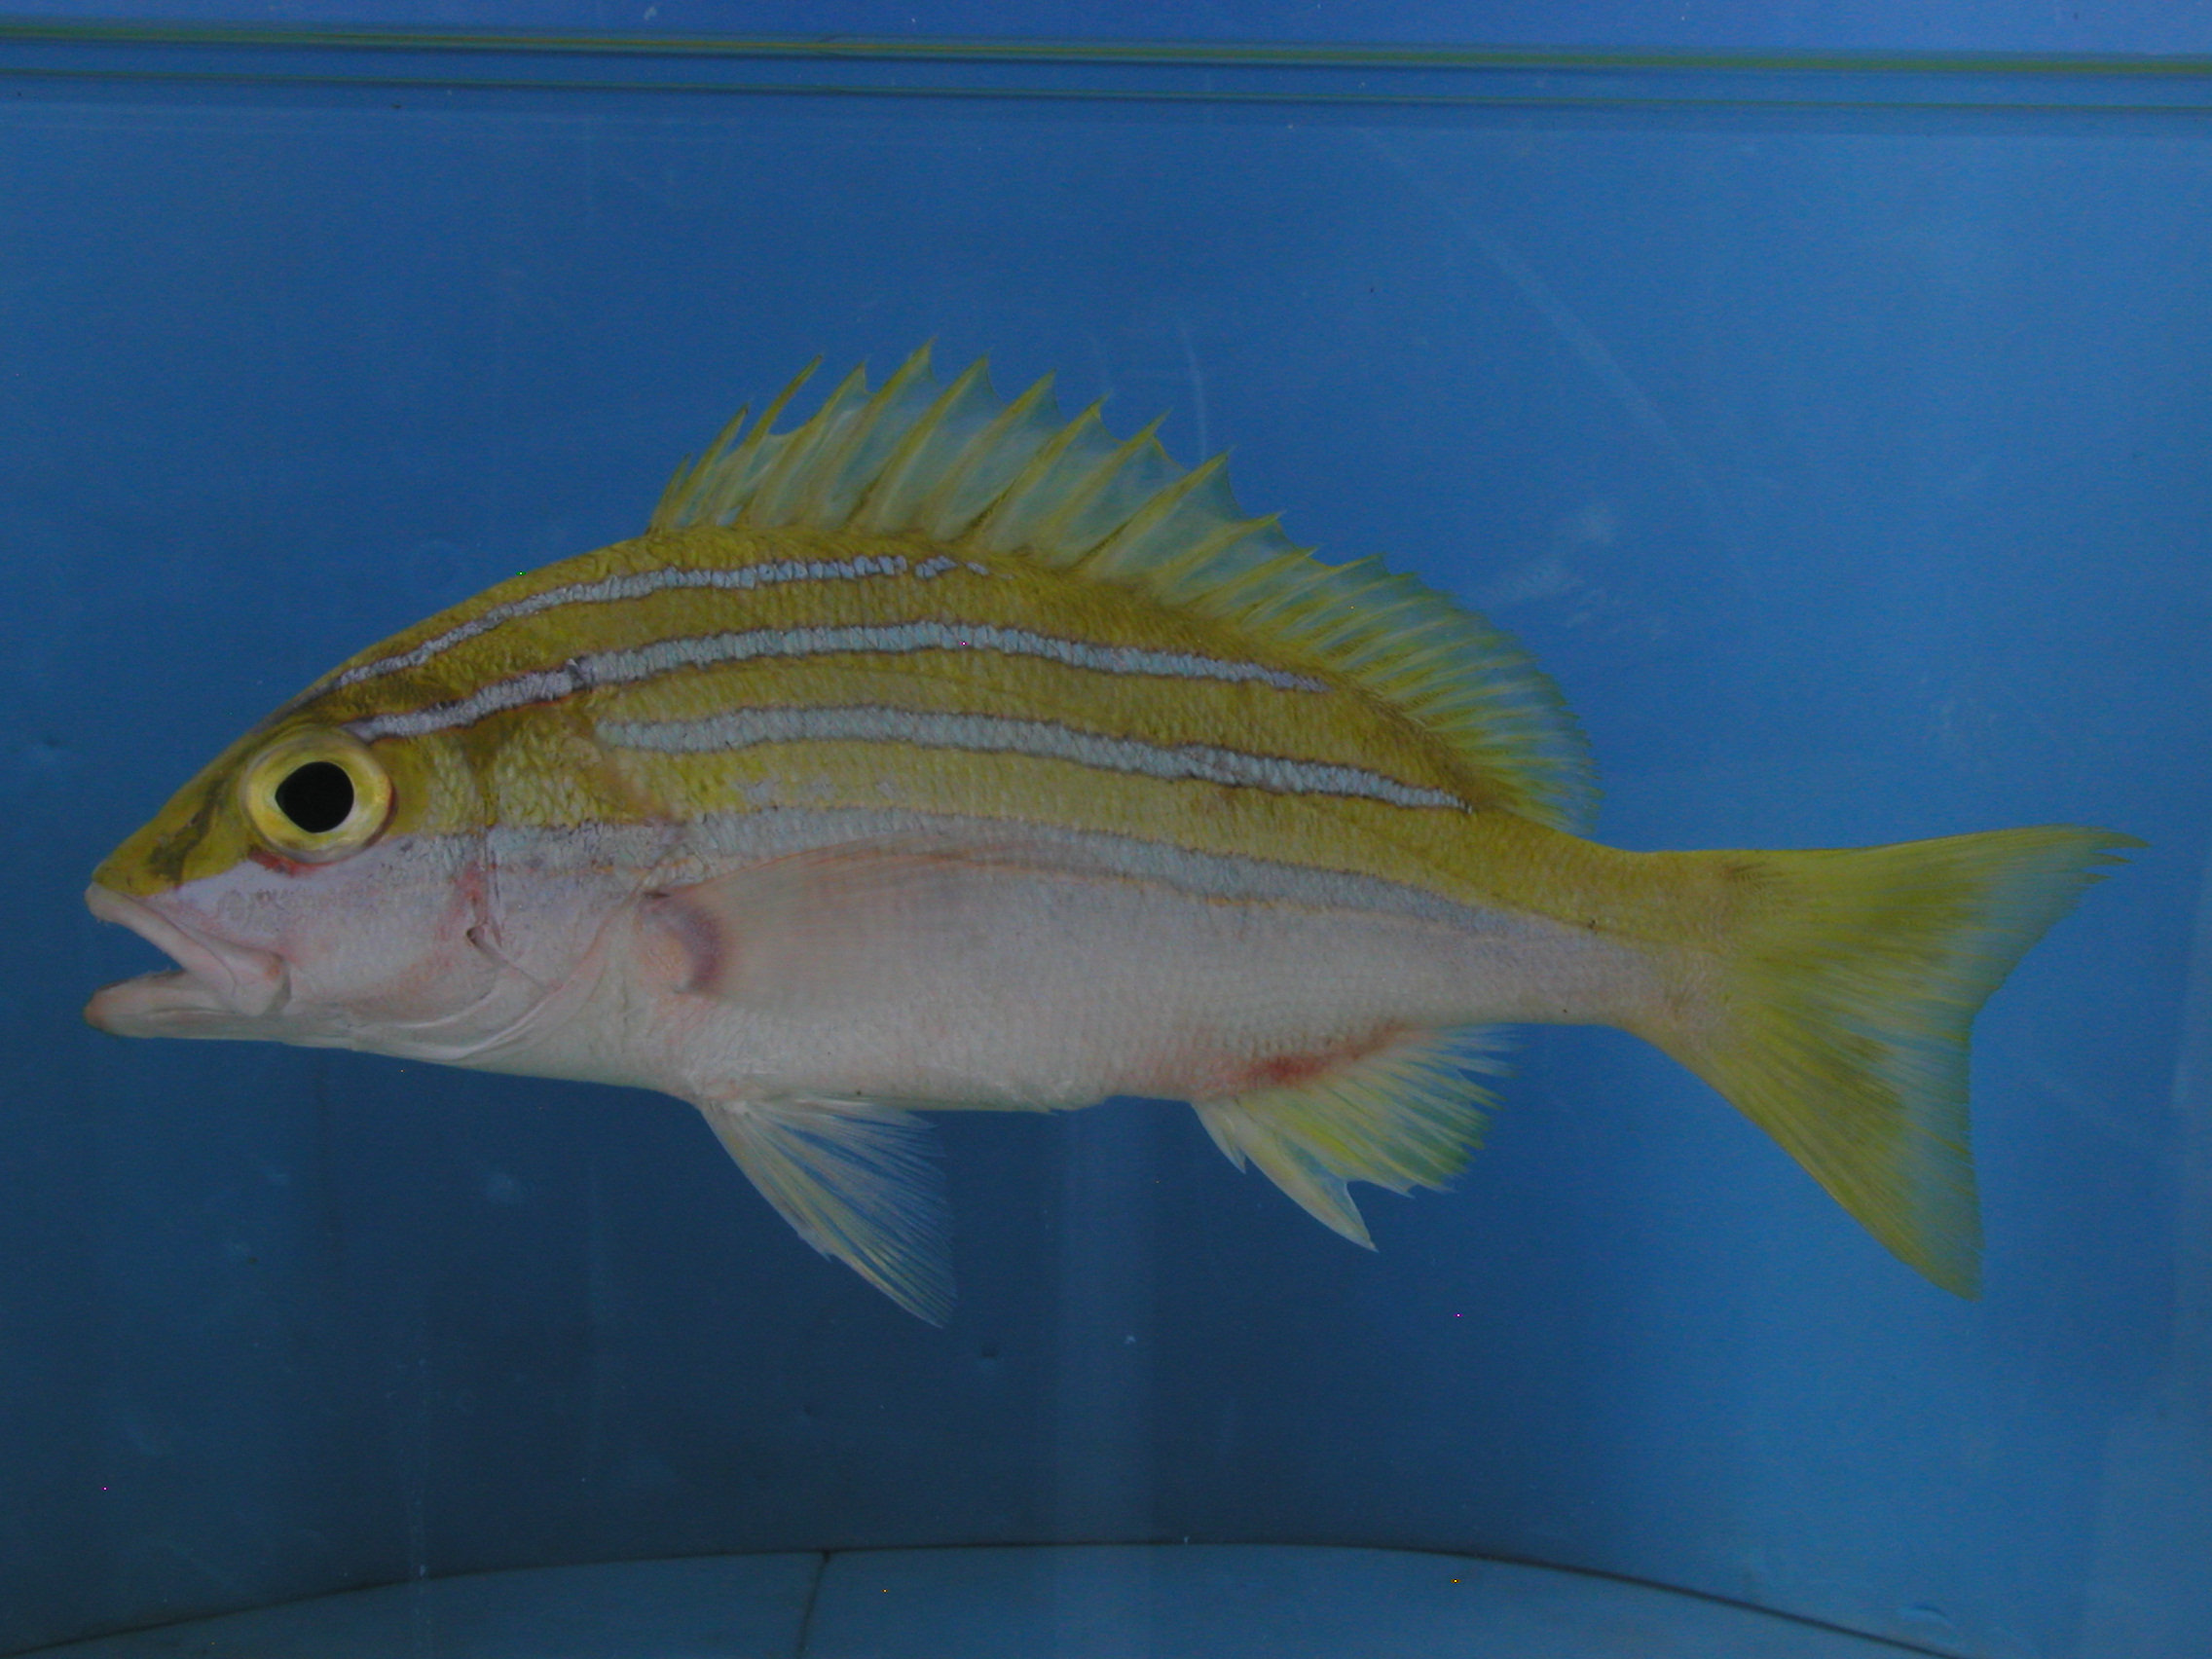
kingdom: Animalia
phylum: Chordata
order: Perciformes
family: Lutjanidae
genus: Lutjanus
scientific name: Lutjanus bengalensis
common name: Bengal snapper
